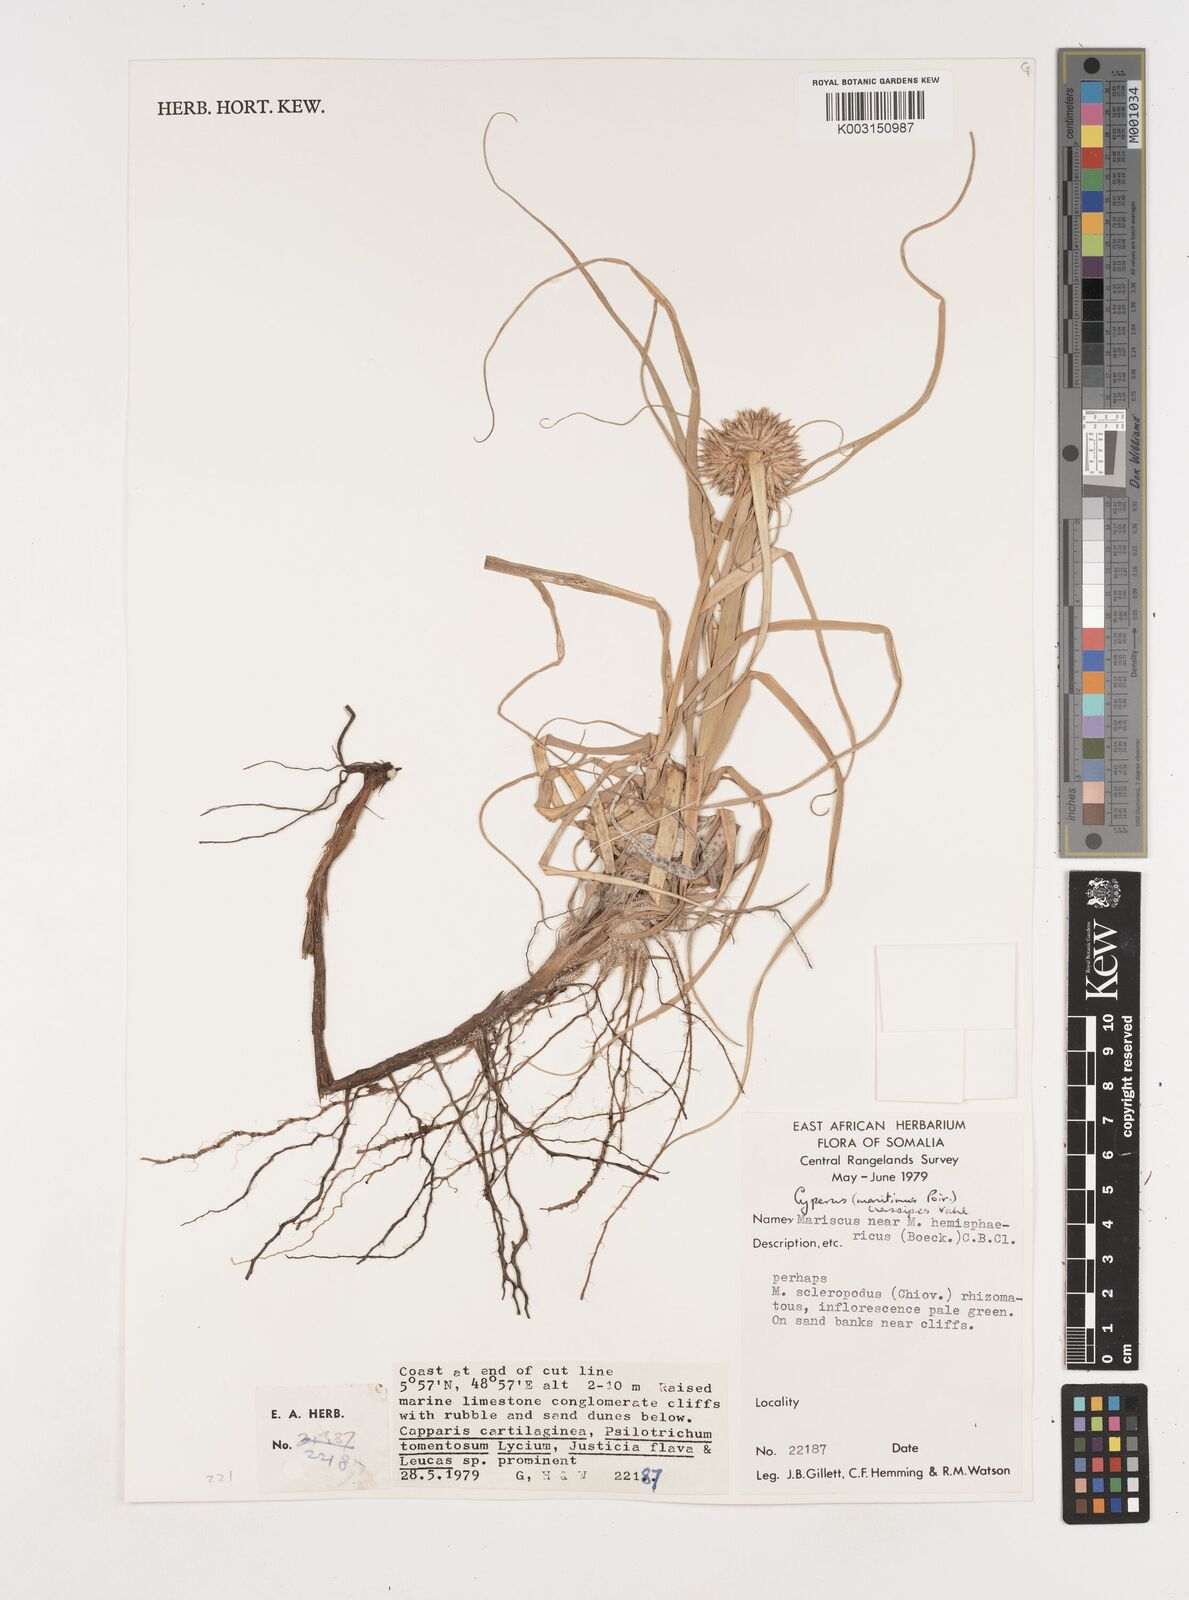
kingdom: Plantae
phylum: Tracheophyta
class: Liliopsida
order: Poales
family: Cyperaceae
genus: Cyperus
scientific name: Cyperus crassipes
